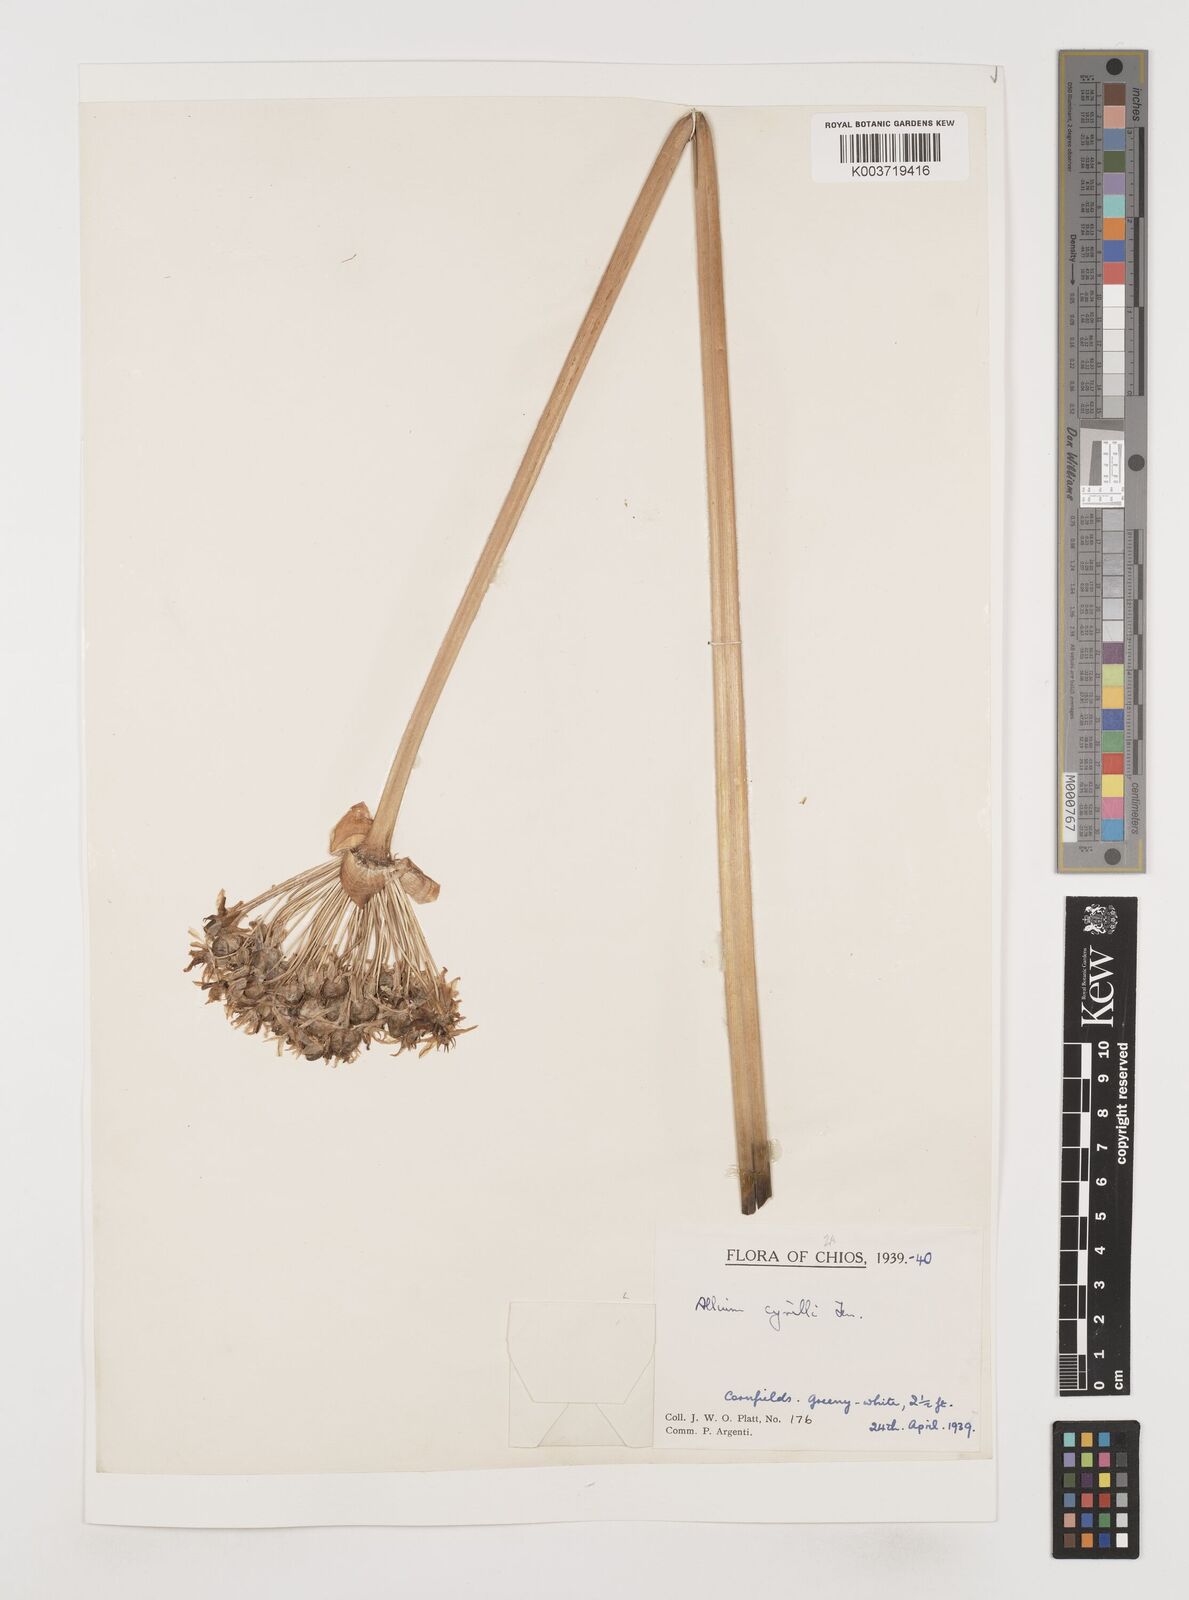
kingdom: Plantae
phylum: Tracheophyta
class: Liliopsida
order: Asparagales
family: Amaryllidaceae
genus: Allium
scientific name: Allium cyrilli
